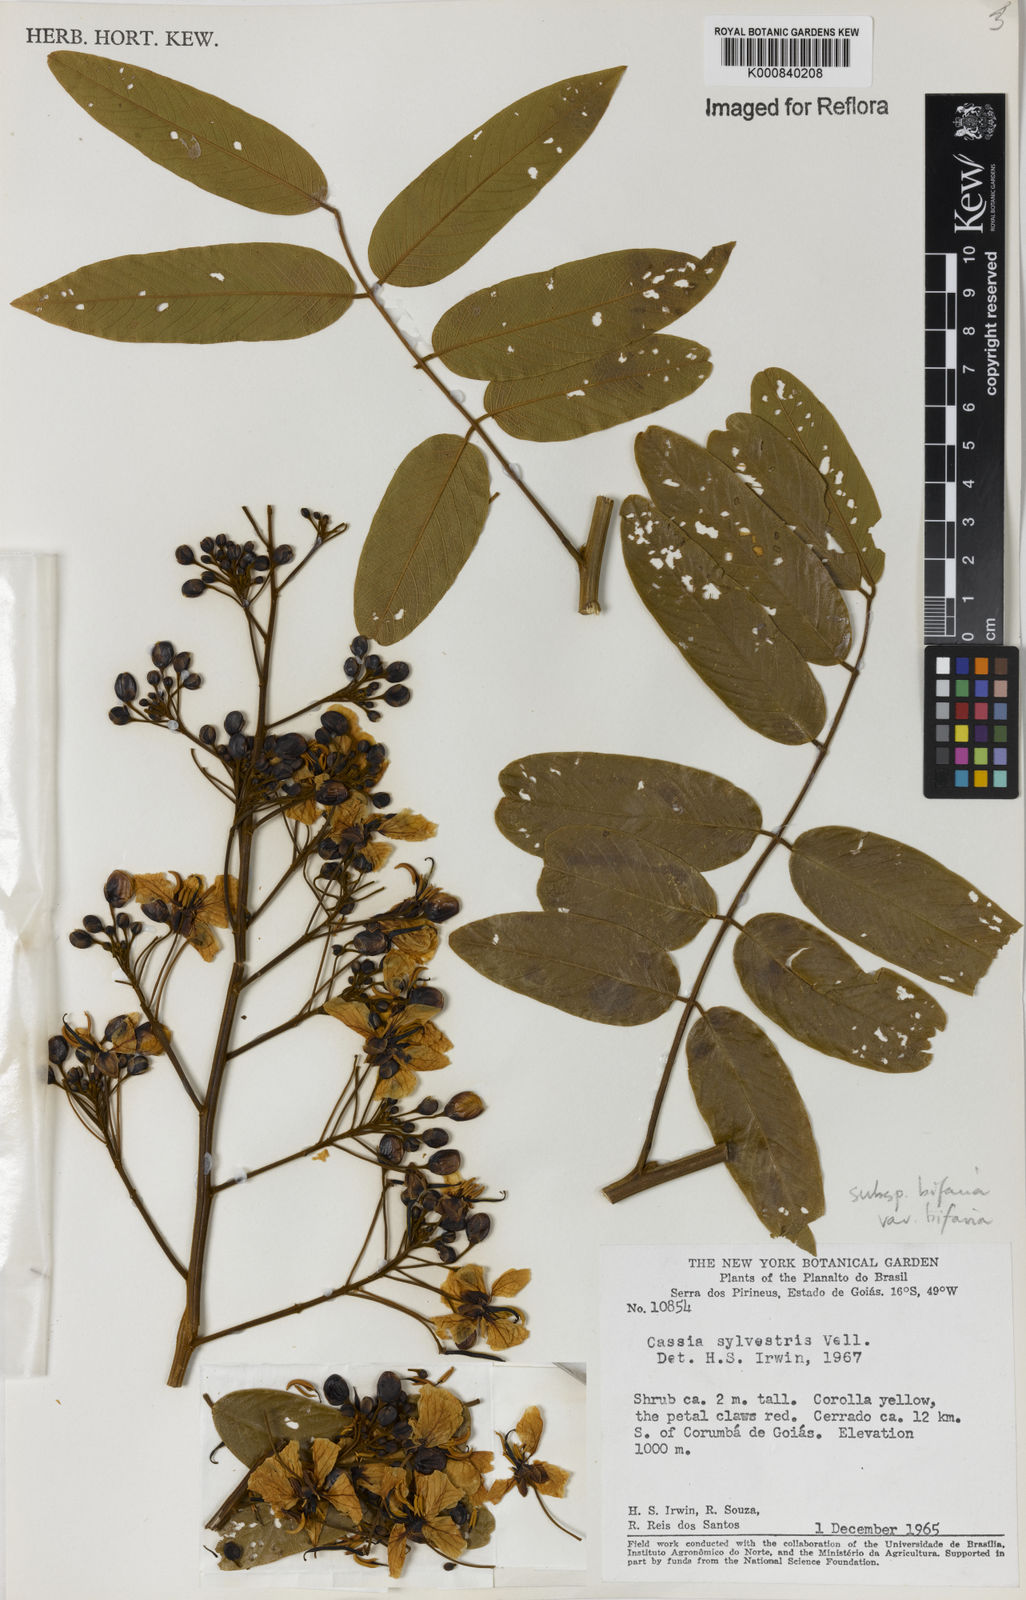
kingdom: Plantae
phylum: Tracheophyta
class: Magnoliopsida
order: Fabales
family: Fabaceae
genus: Senna
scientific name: Senna silvestris
